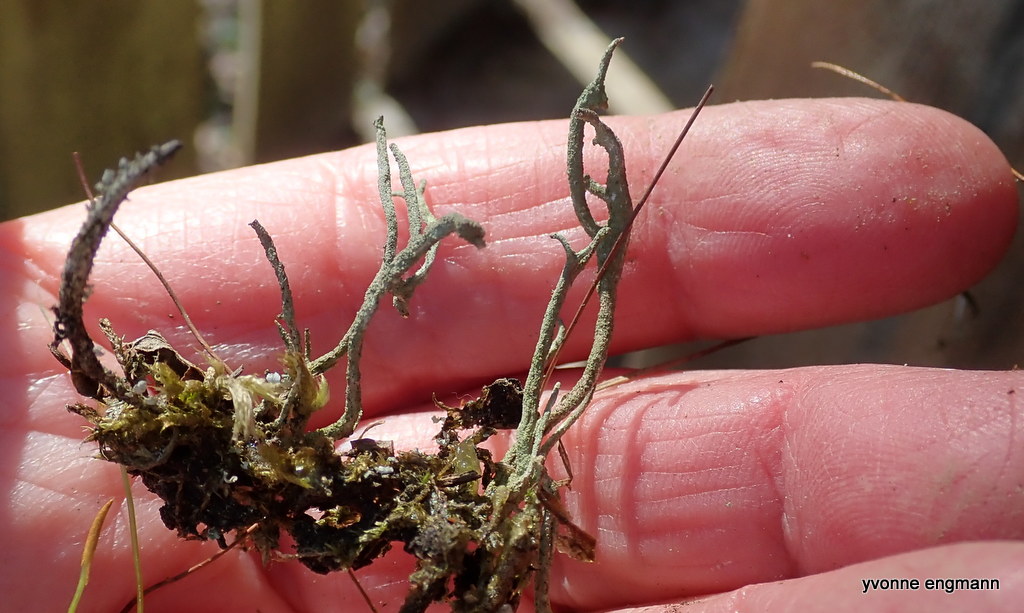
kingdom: Fungi
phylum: Ascomycota
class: Lecanoromycetes
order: Lecanorales
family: Cladoniaceae
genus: Cladonia
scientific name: Cladonia subulata
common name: spids bægerlav
